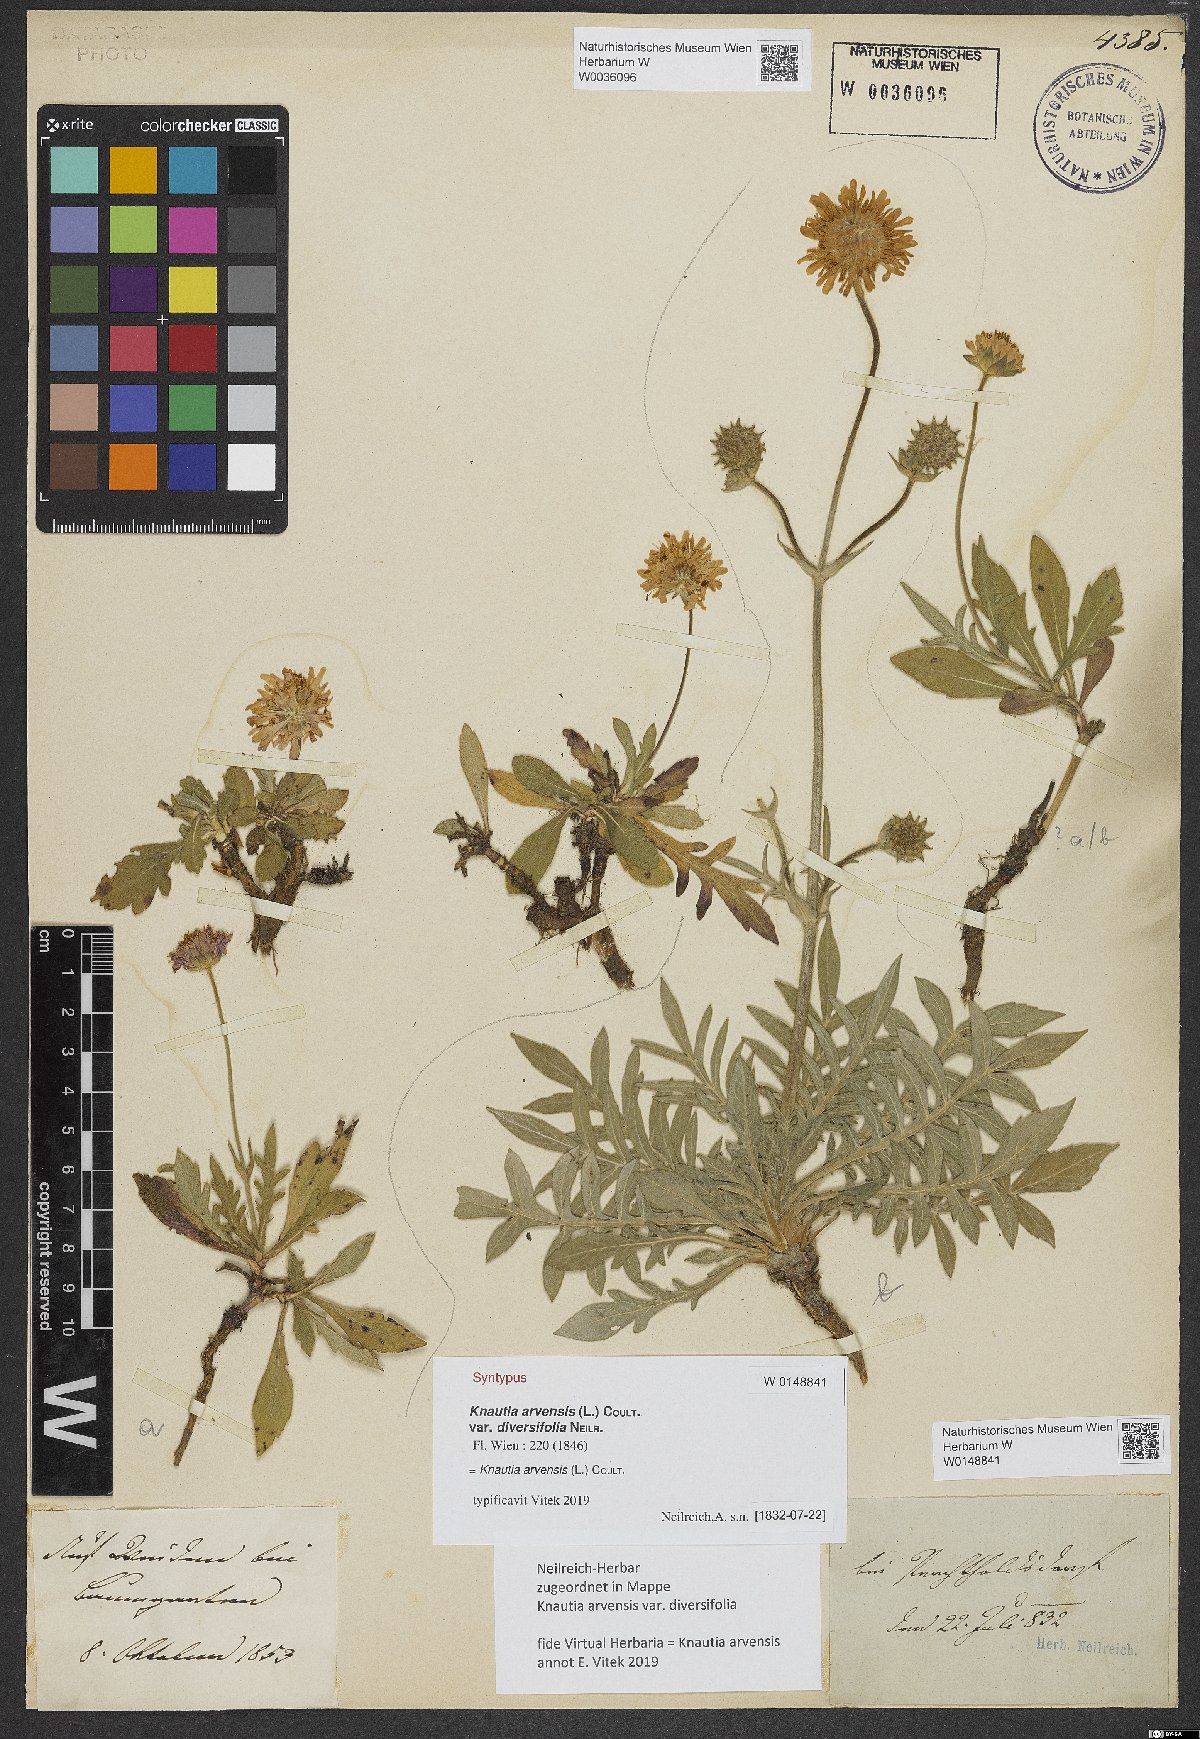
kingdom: Plantae
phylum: Tracheophyta
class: Magnoliopsida
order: Dipsacales
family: Caprifoliaceae
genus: Knautia
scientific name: Knautia arvensis
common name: Field scabiosa
